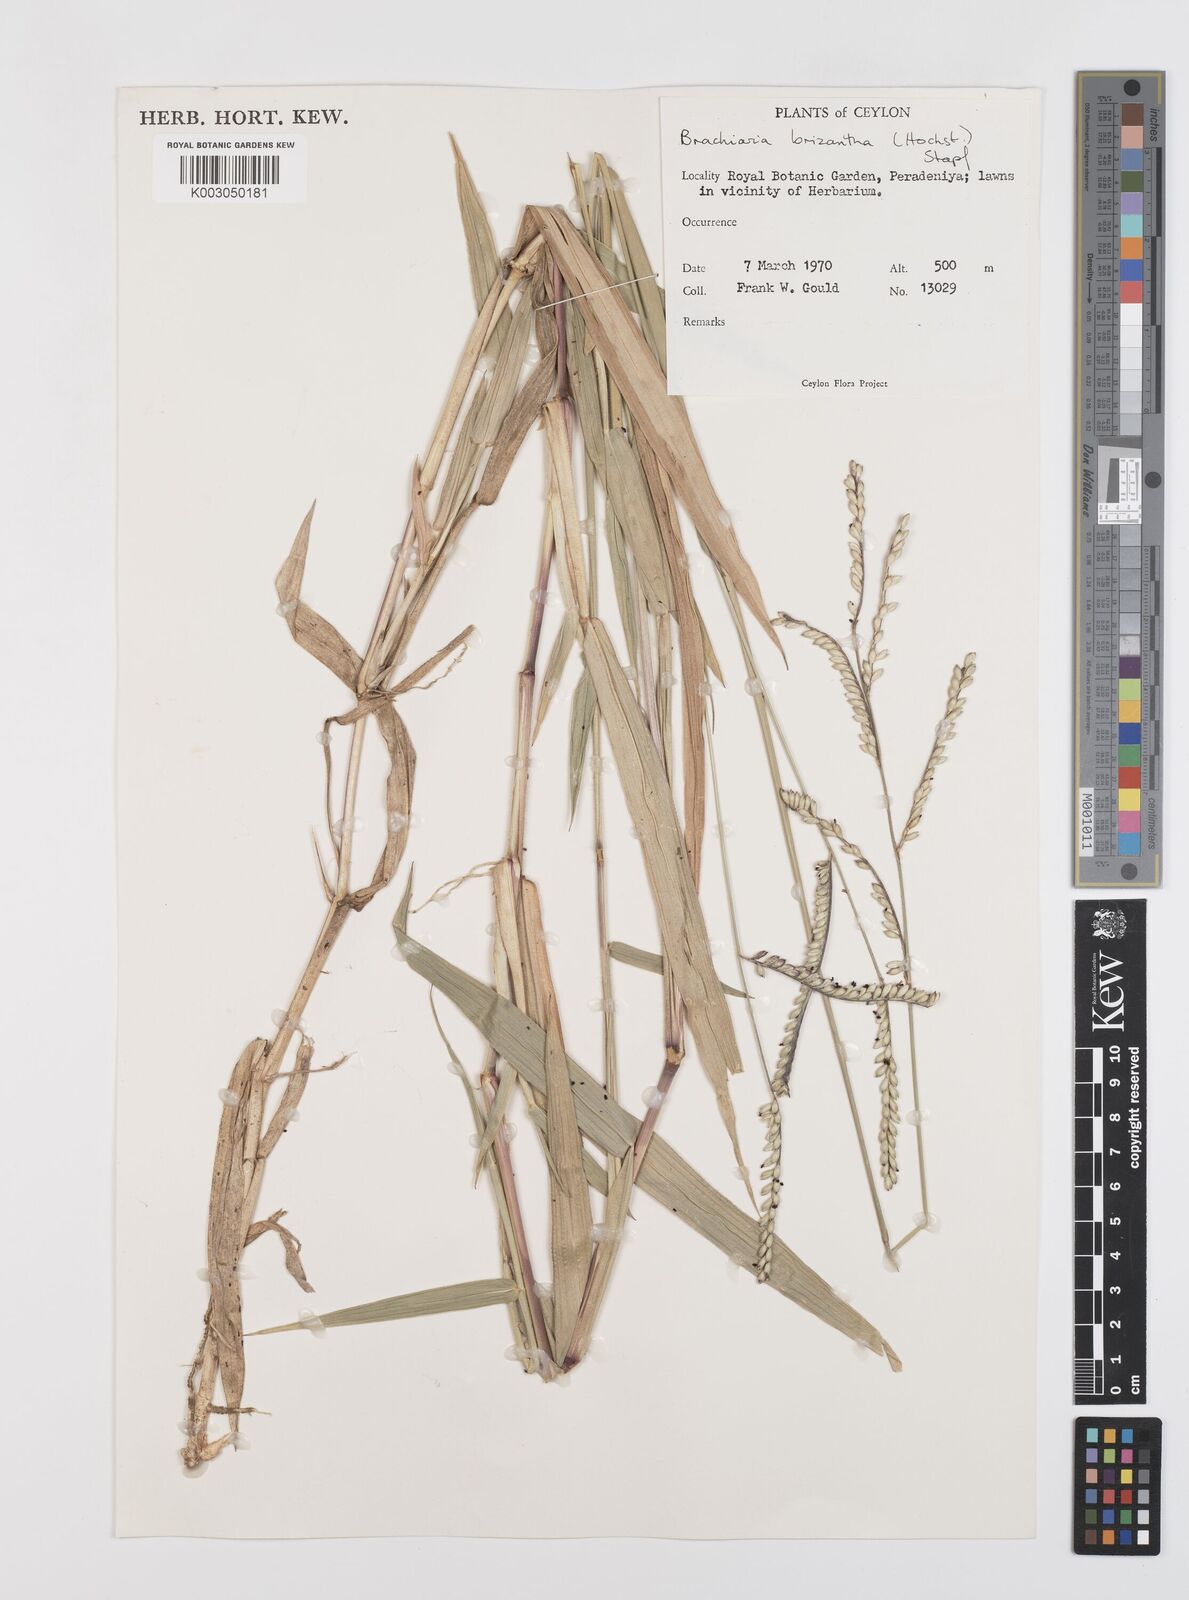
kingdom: Plantae
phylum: Tracheophyta
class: Liliopsida
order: Poales
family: Poaceae
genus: Urochloa
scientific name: Urochloa eminii
